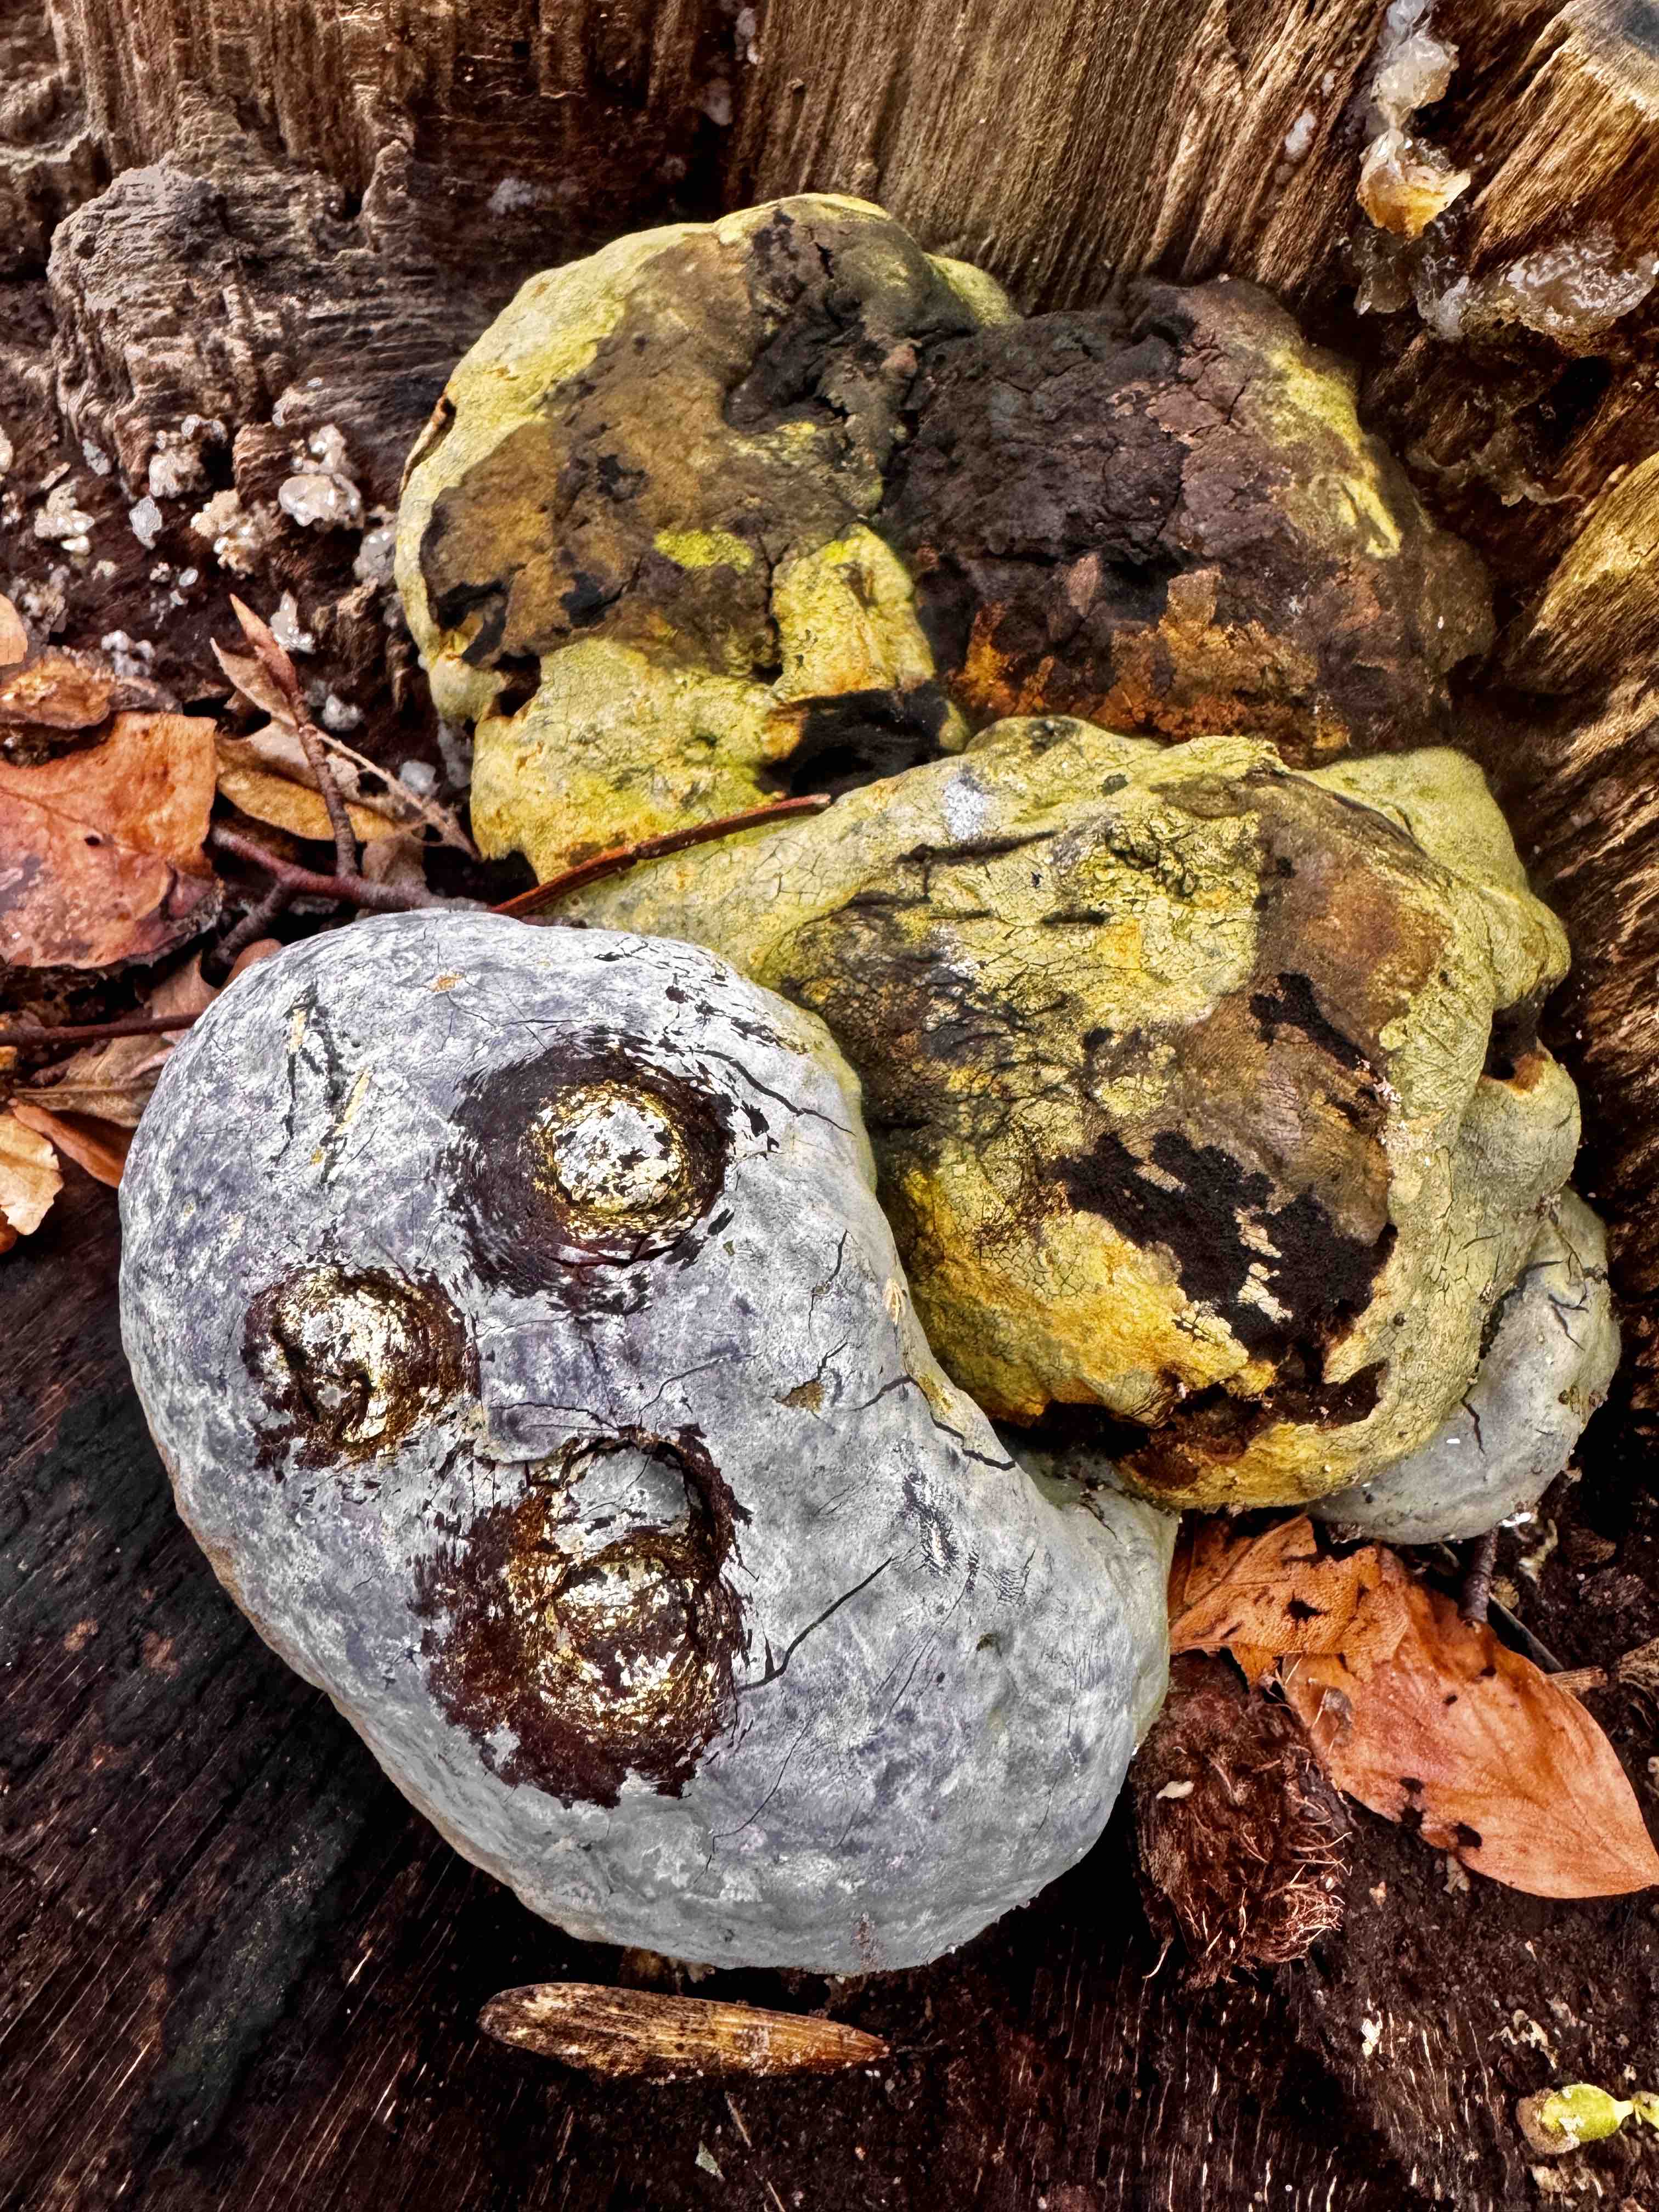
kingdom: Fungi
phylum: Basidiomycota
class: Agaricomycetes
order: Polyporales
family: Polyporaceae
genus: Ganoderma
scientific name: Ganoderma pfeifferi
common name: kobberrød lakporesvamp
